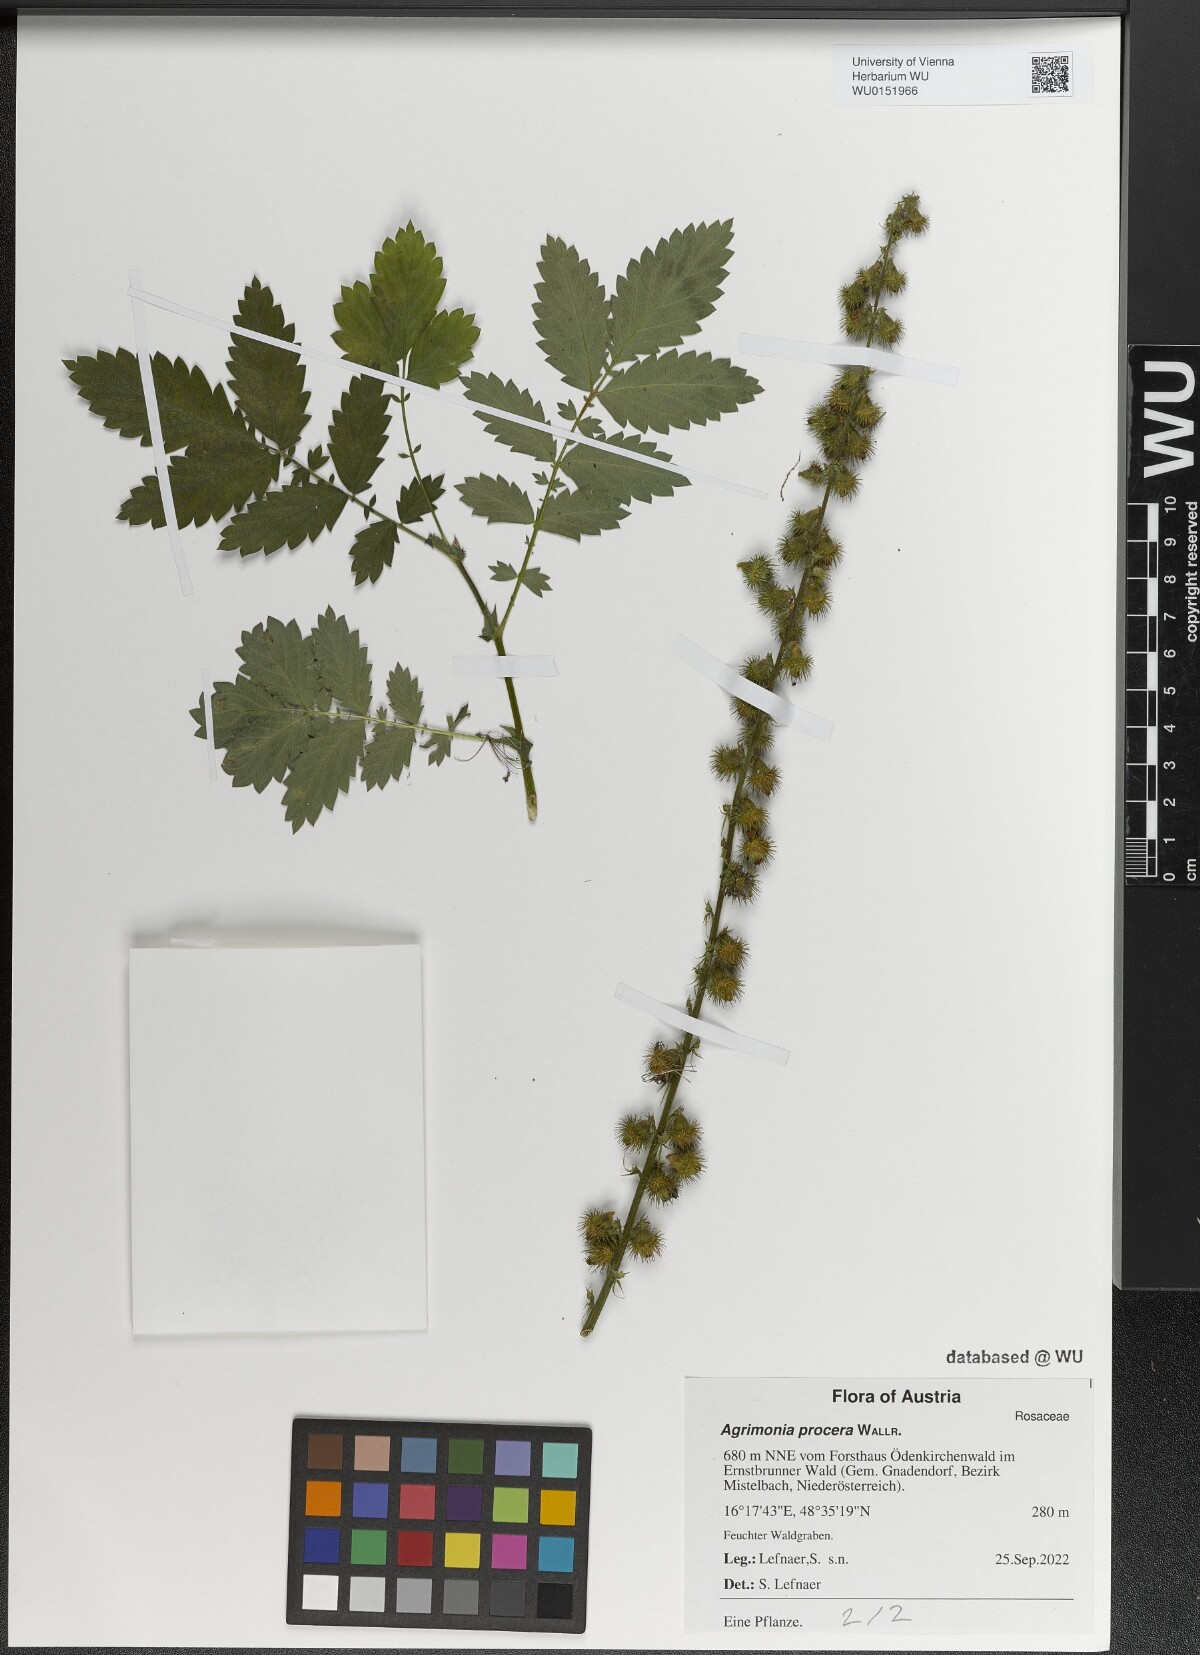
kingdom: Plantae
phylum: Tracheophyta
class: Magnoliopsida
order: Rosales
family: Rosaceae
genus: Agrimonia
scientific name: Agrimonia procera
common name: Fragrant agrimony
